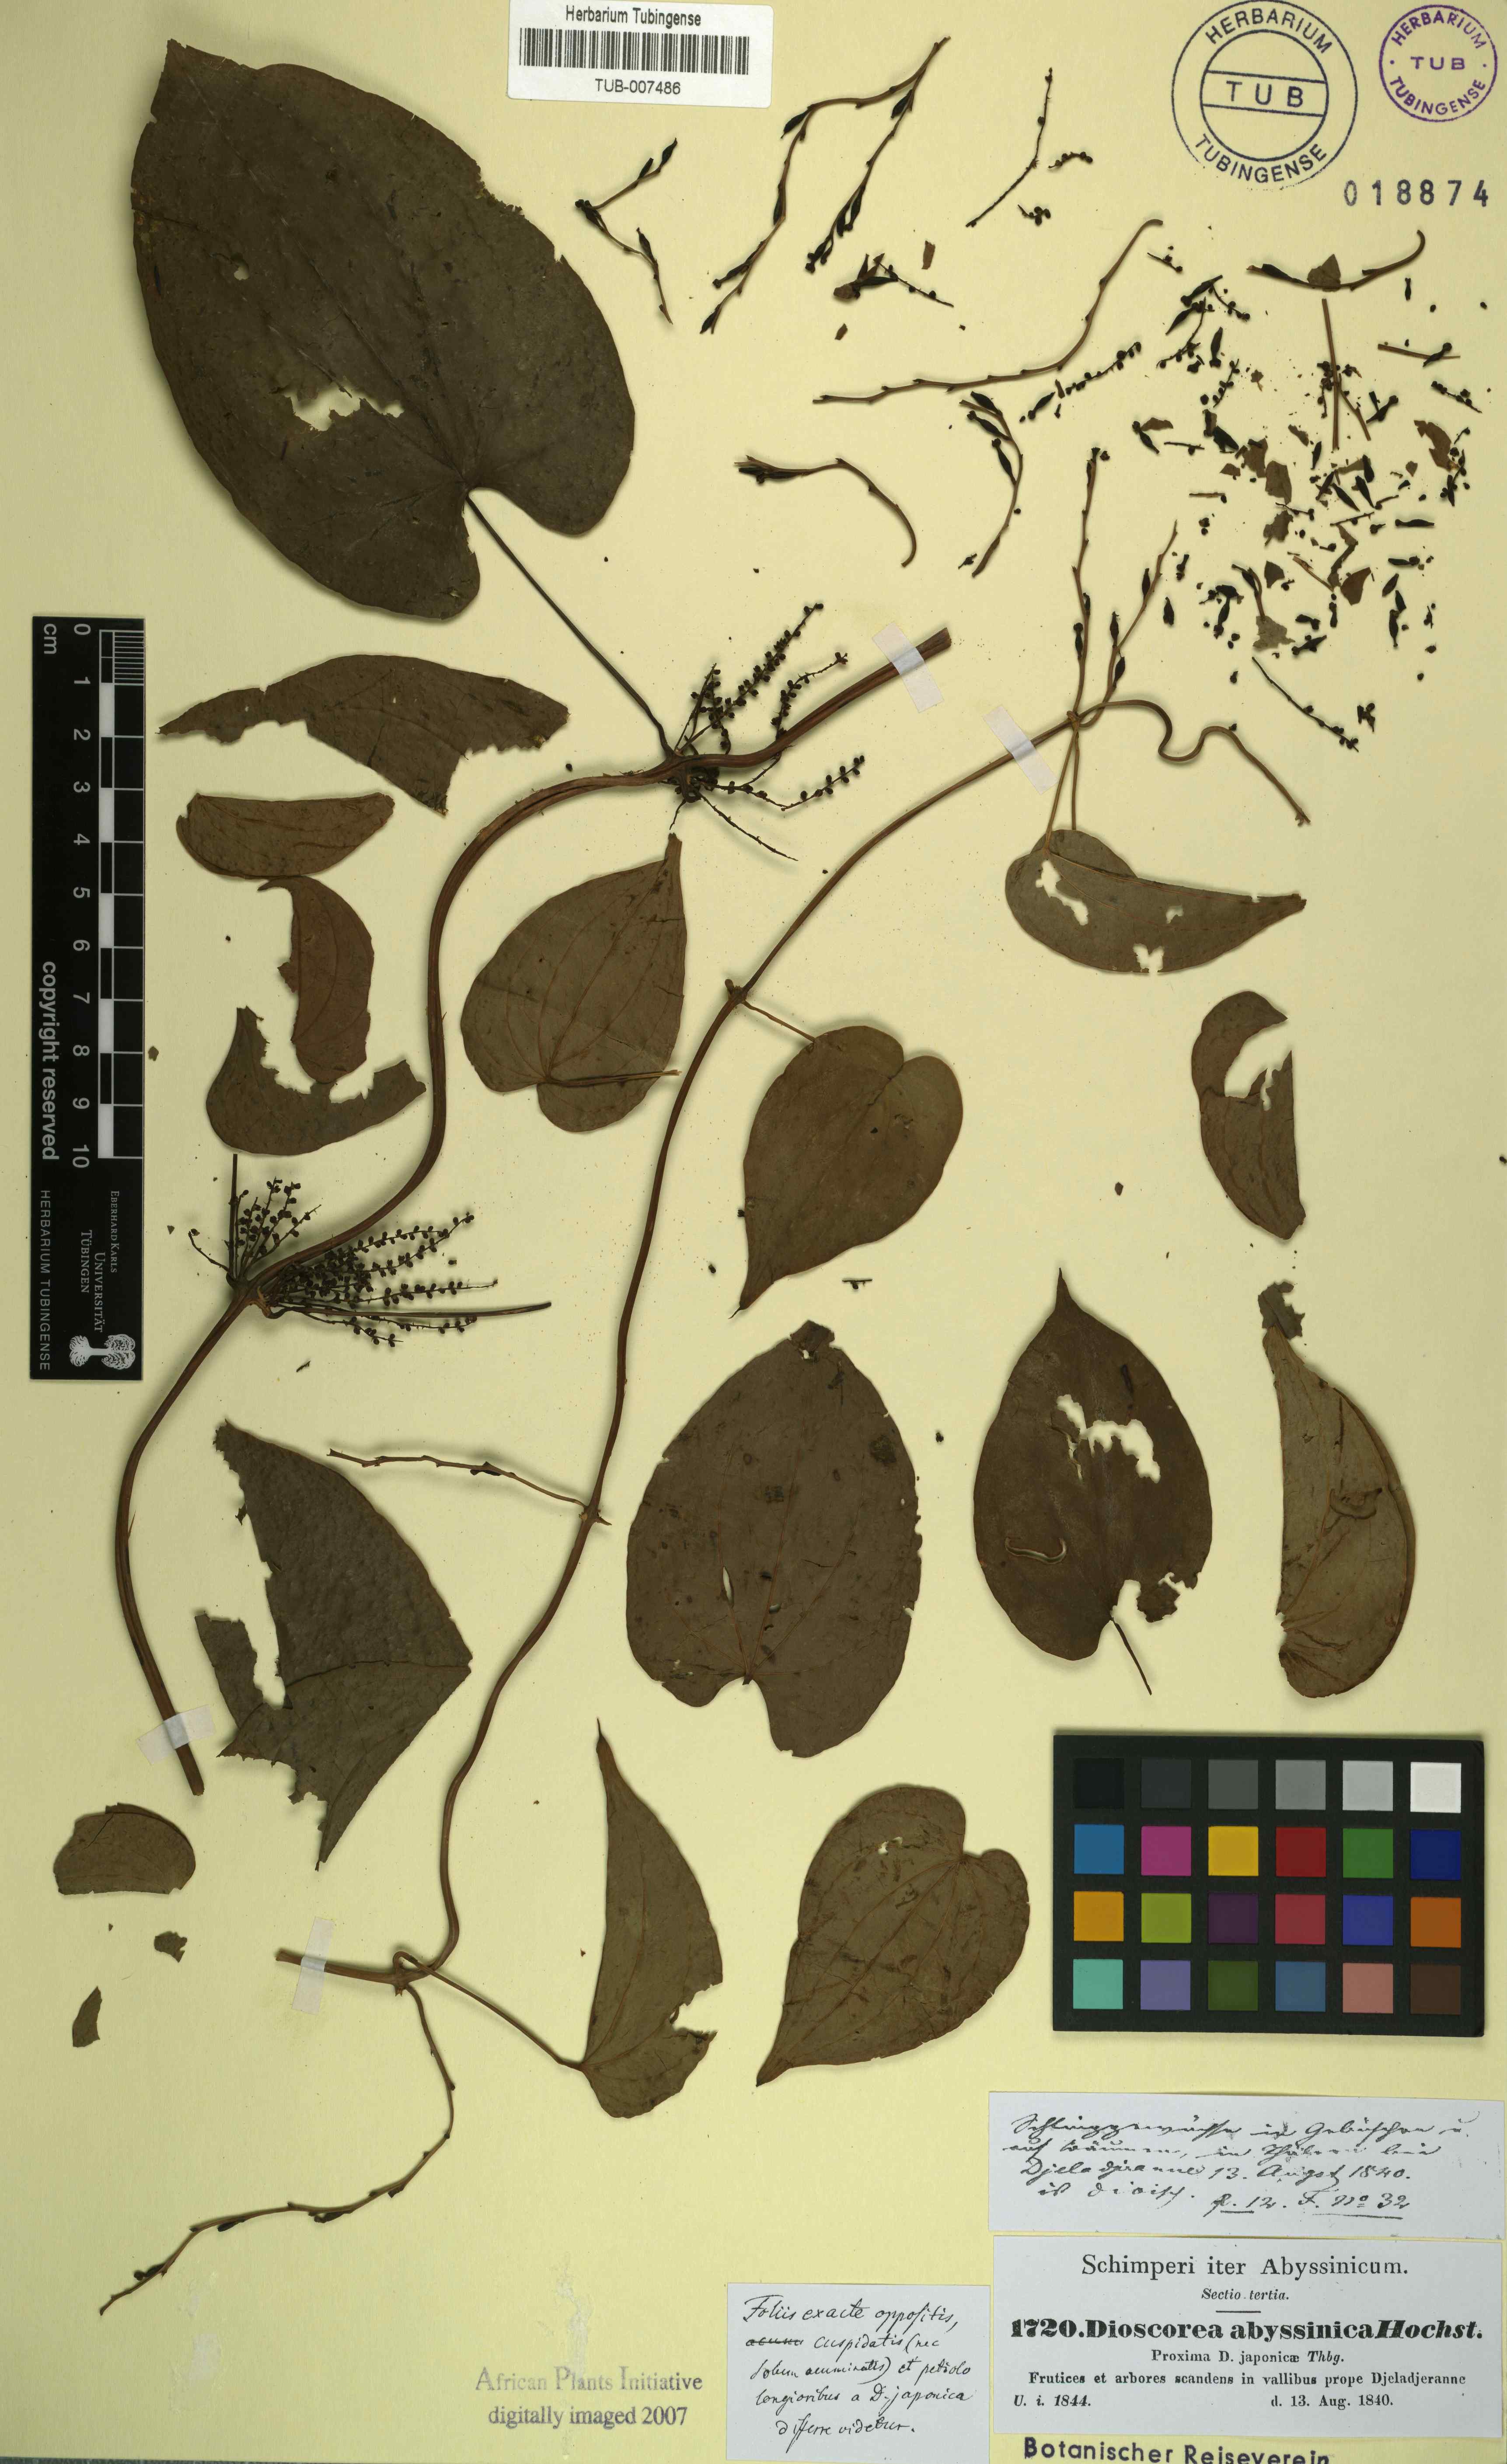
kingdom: Plantae
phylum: Tracheophyta
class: Liliopsida
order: Dioscoreales
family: Dioscoreaceae
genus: Dioscorea
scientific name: Dioscorea abyssinica
